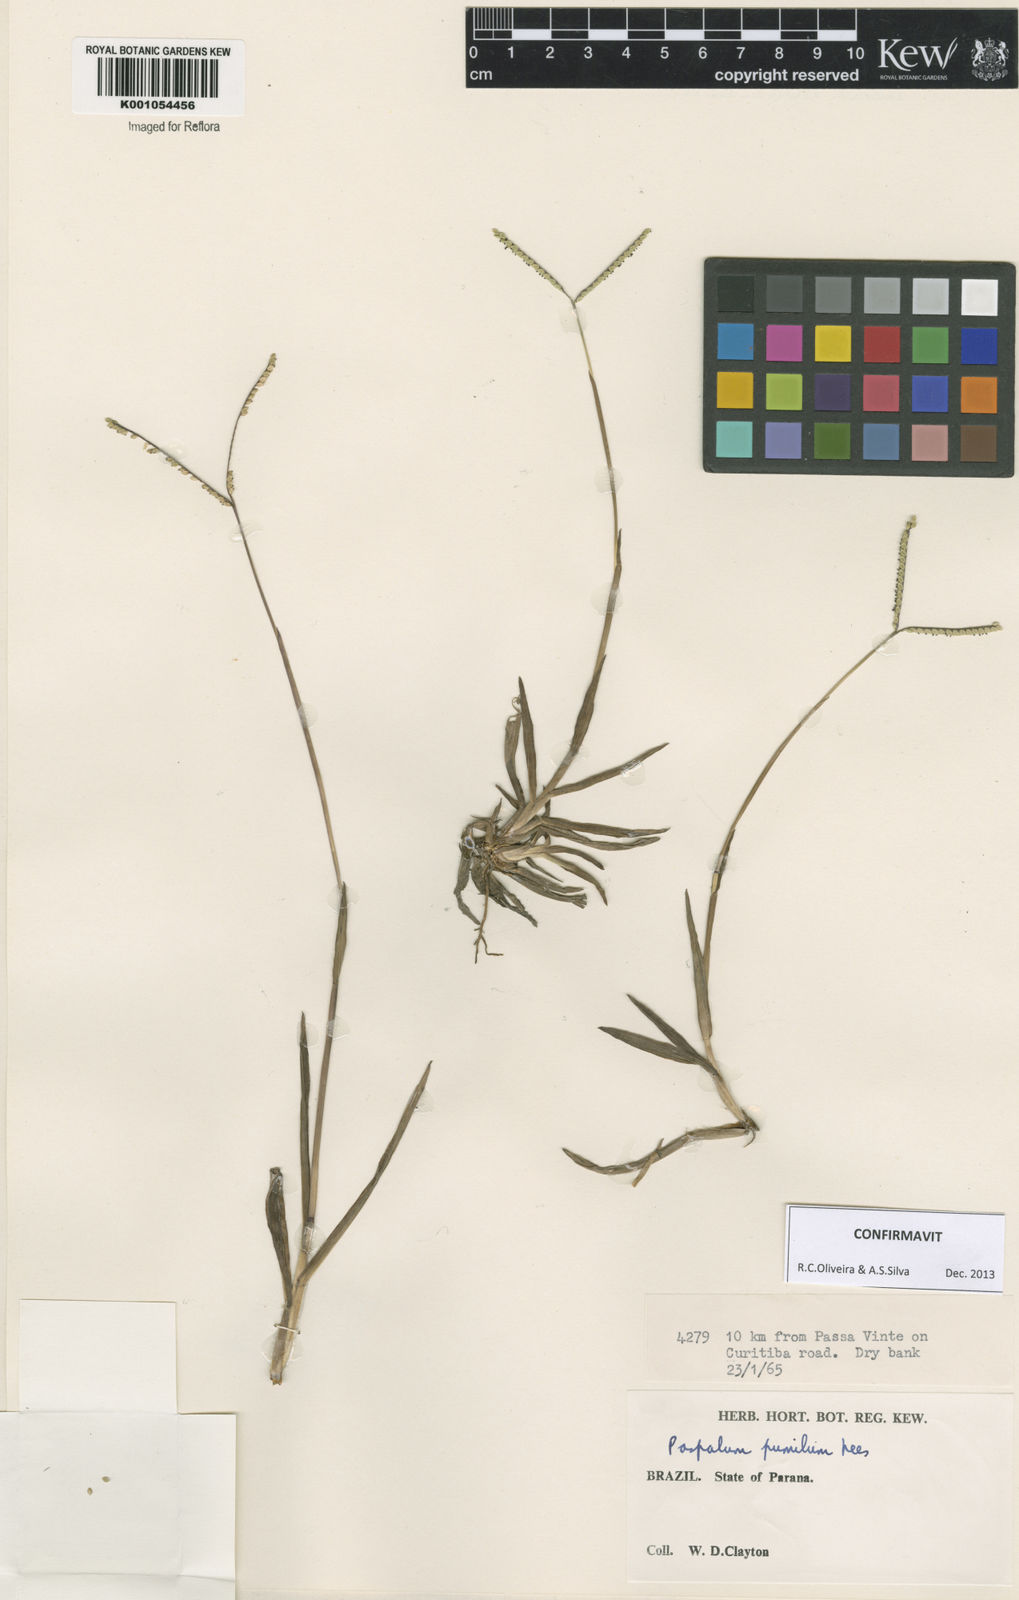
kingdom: Plantae
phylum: Tracheophyta
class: Liliopsida
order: Poales
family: Poaceae
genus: Paspalum
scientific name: Paspalum pumilum
